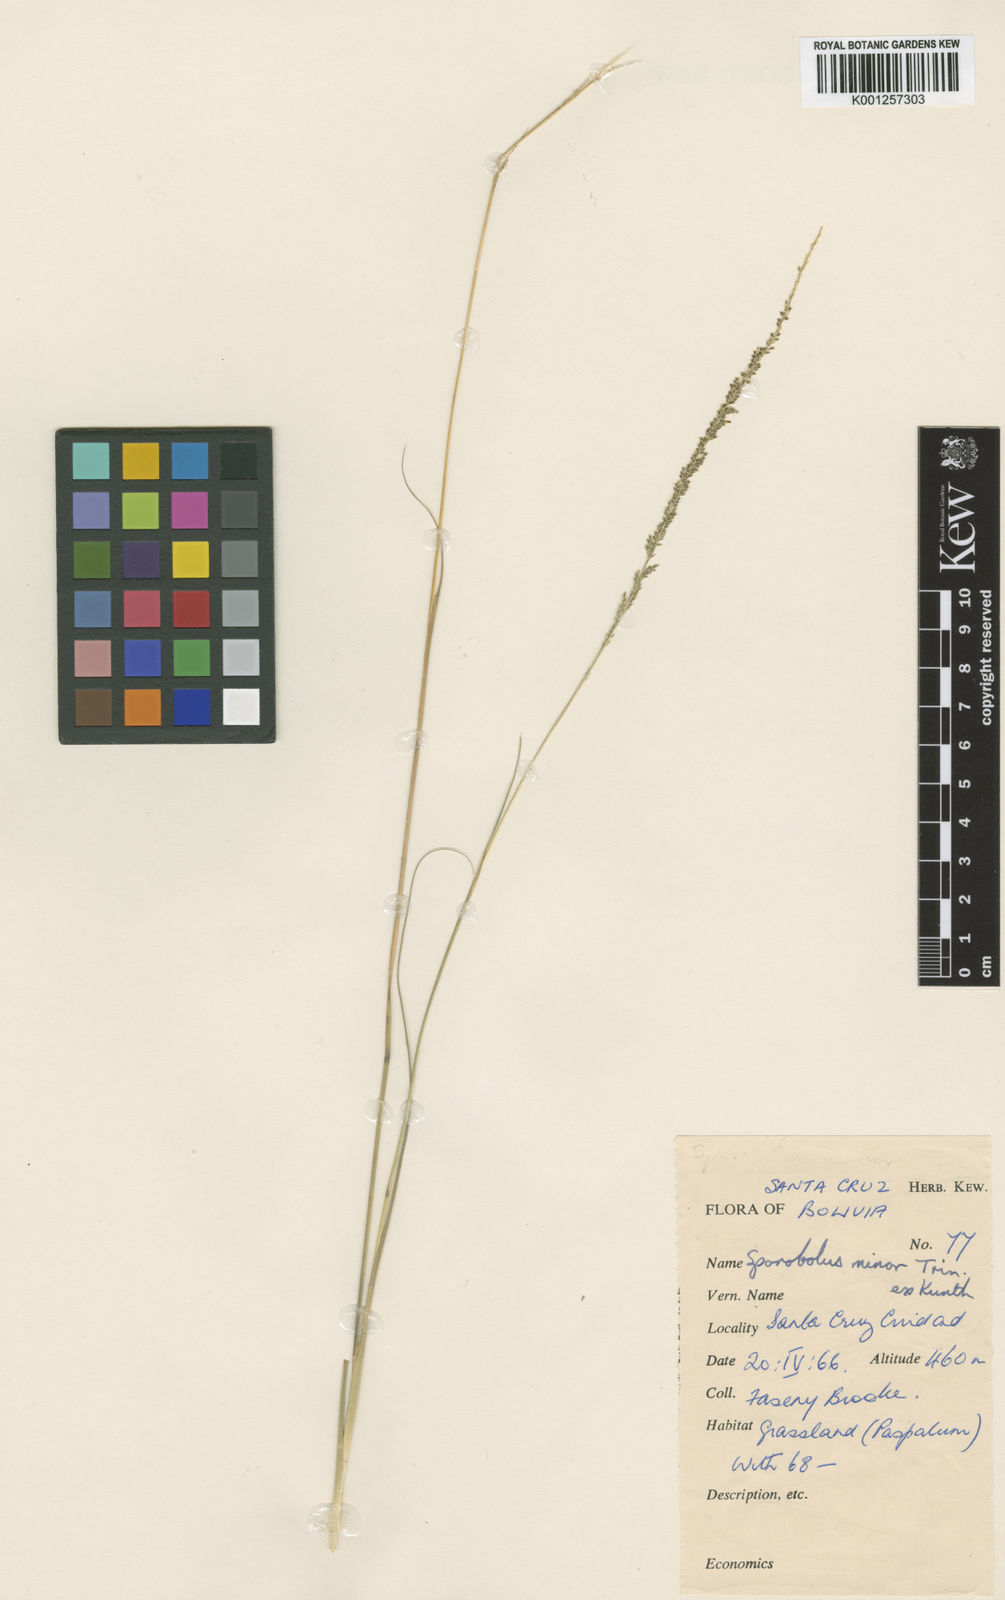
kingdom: Plantae
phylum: Tracheophyta
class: Liliopsida
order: Poales
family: Poaceae
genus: Sporobolus
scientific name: Sporobolus
